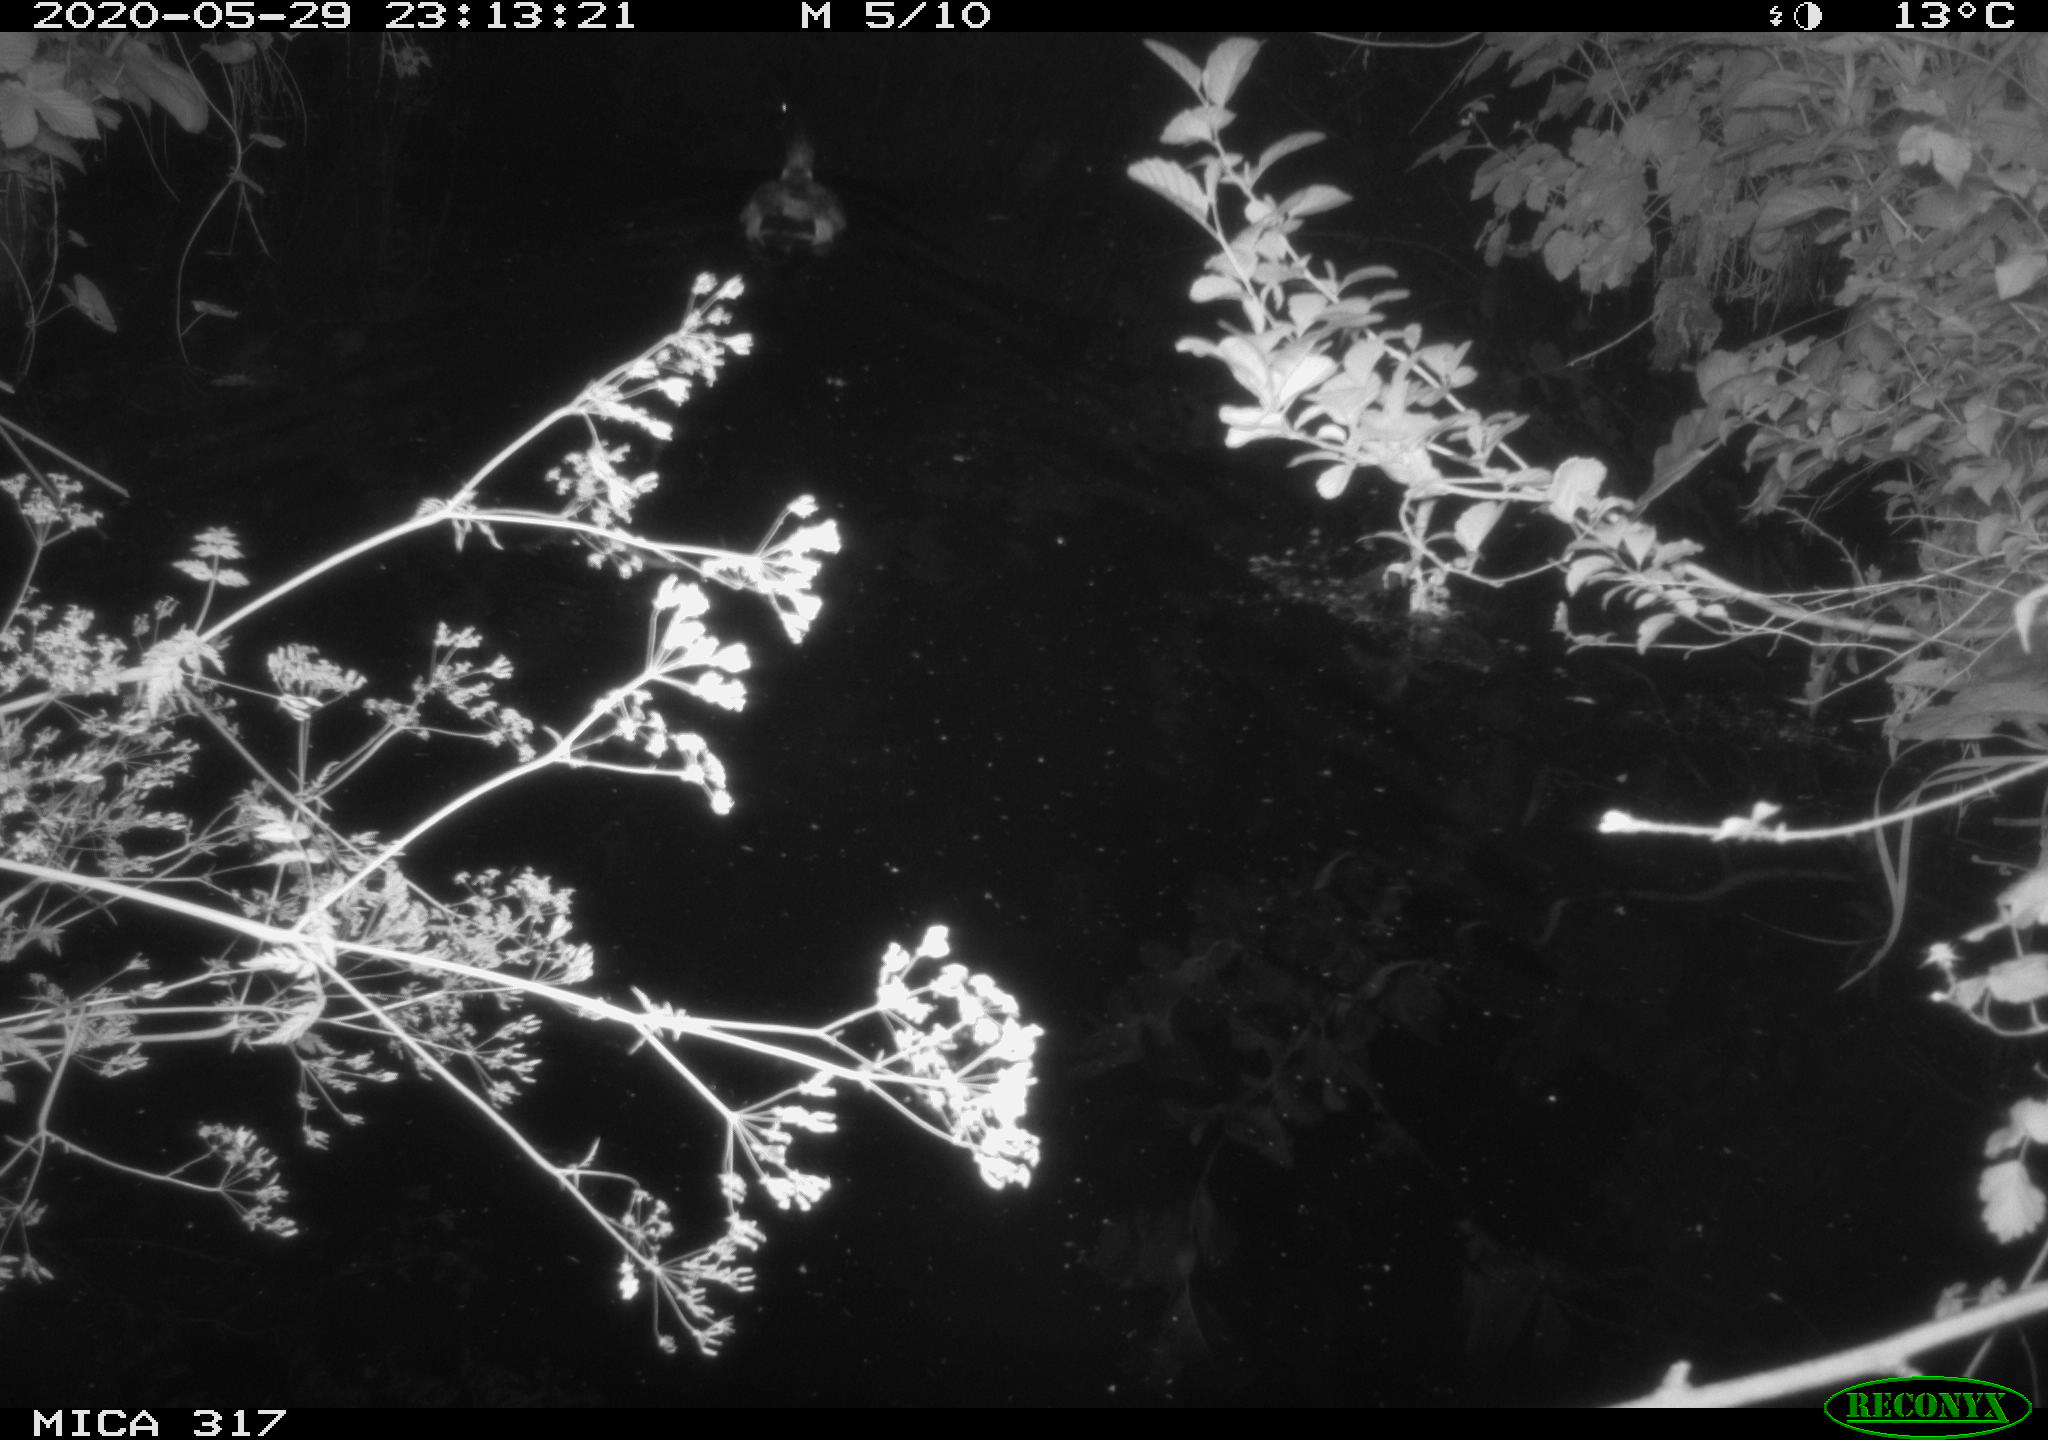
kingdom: Animalia
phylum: Chordata
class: Aves
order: Anseriformes
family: Anatidae
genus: Anas
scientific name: Anas platyrhynchos
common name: Mallard
